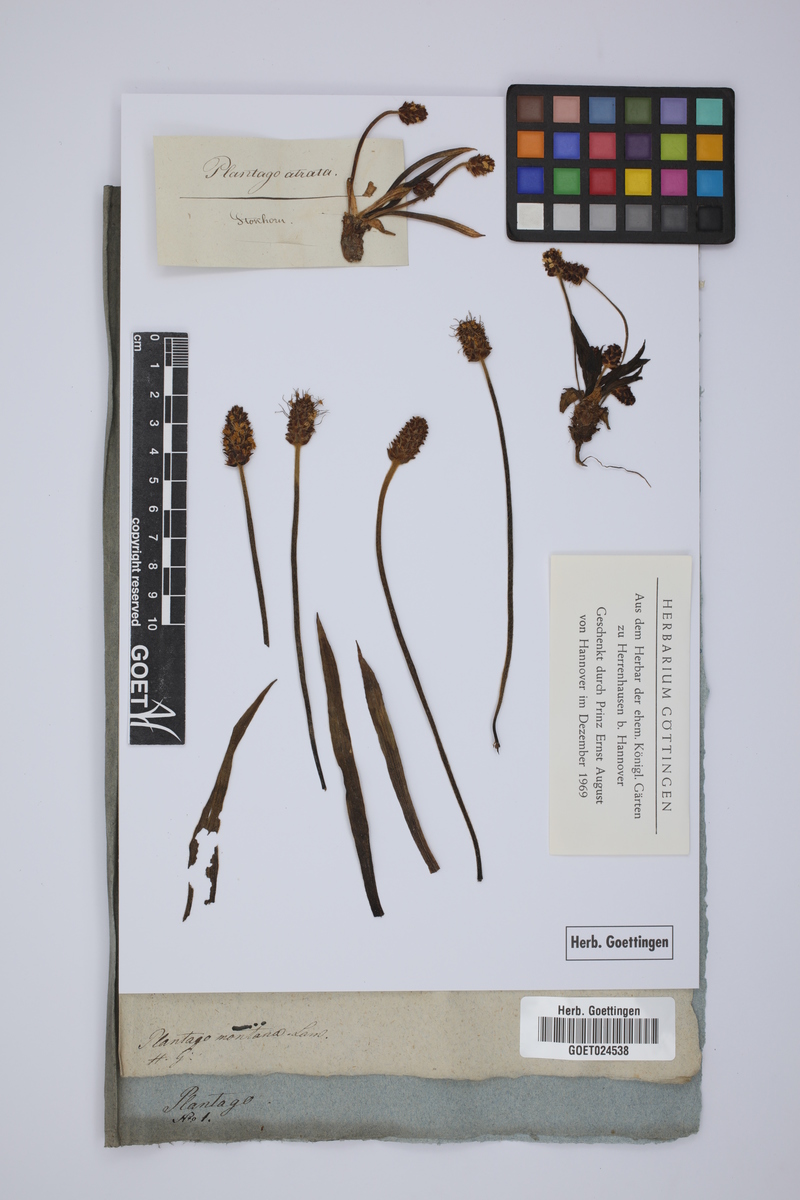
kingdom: Plantae
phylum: Tracheophyta
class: Magnoliopsida
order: Lamiales
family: Plantaginaceae
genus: Plantago
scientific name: Plantago atrata
